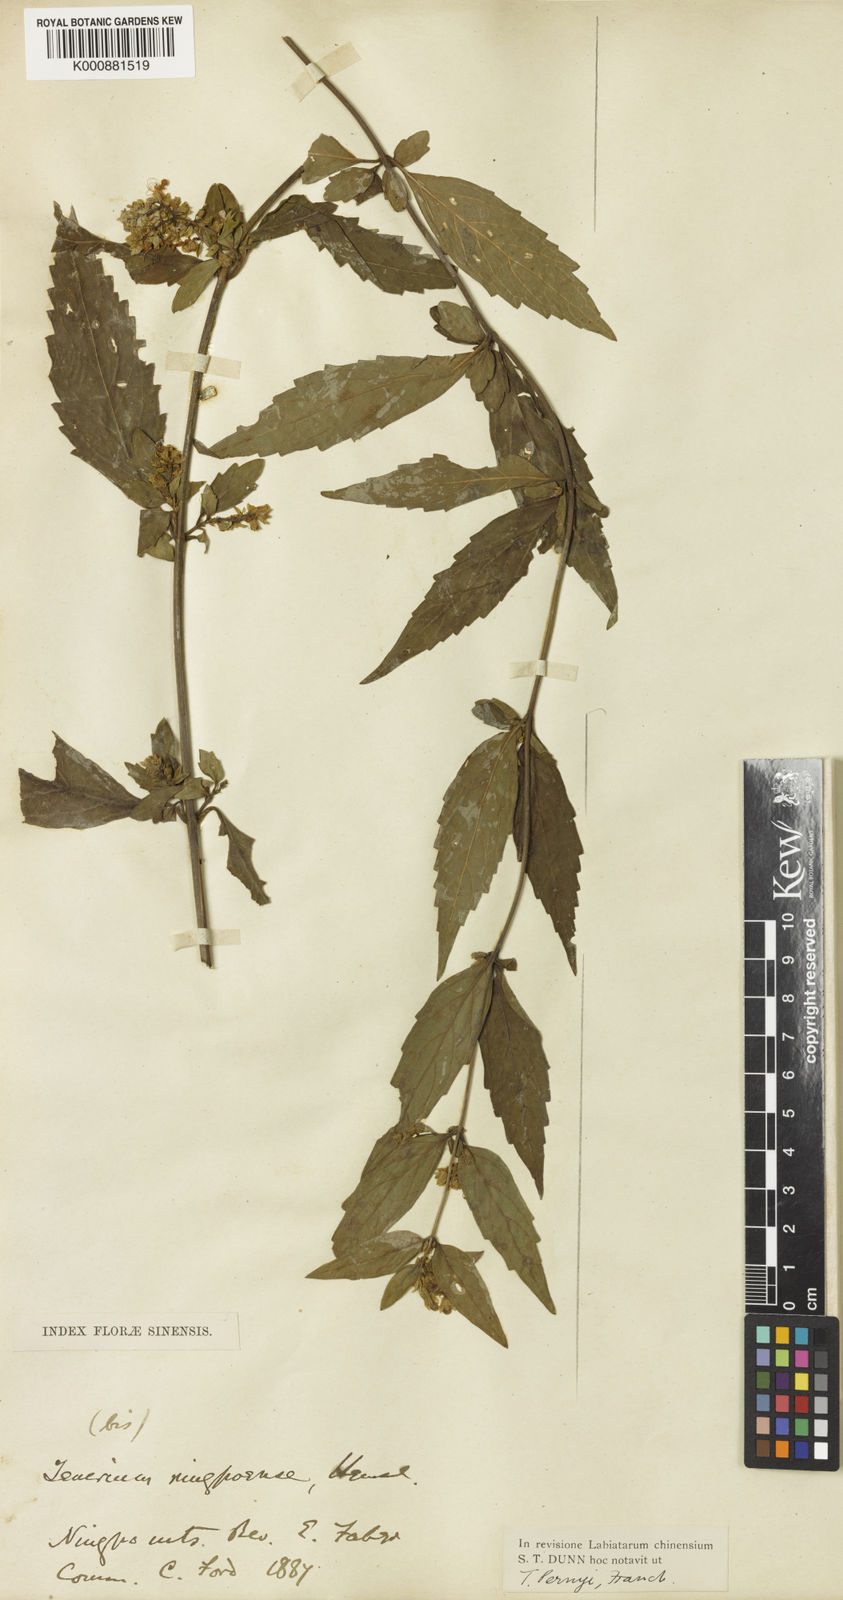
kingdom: Plantae
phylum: Tracheophyta
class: Magnoliopsida
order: Lamiales
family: Lamiaceae
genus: Teucrium
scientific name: Teucrium pernyi
